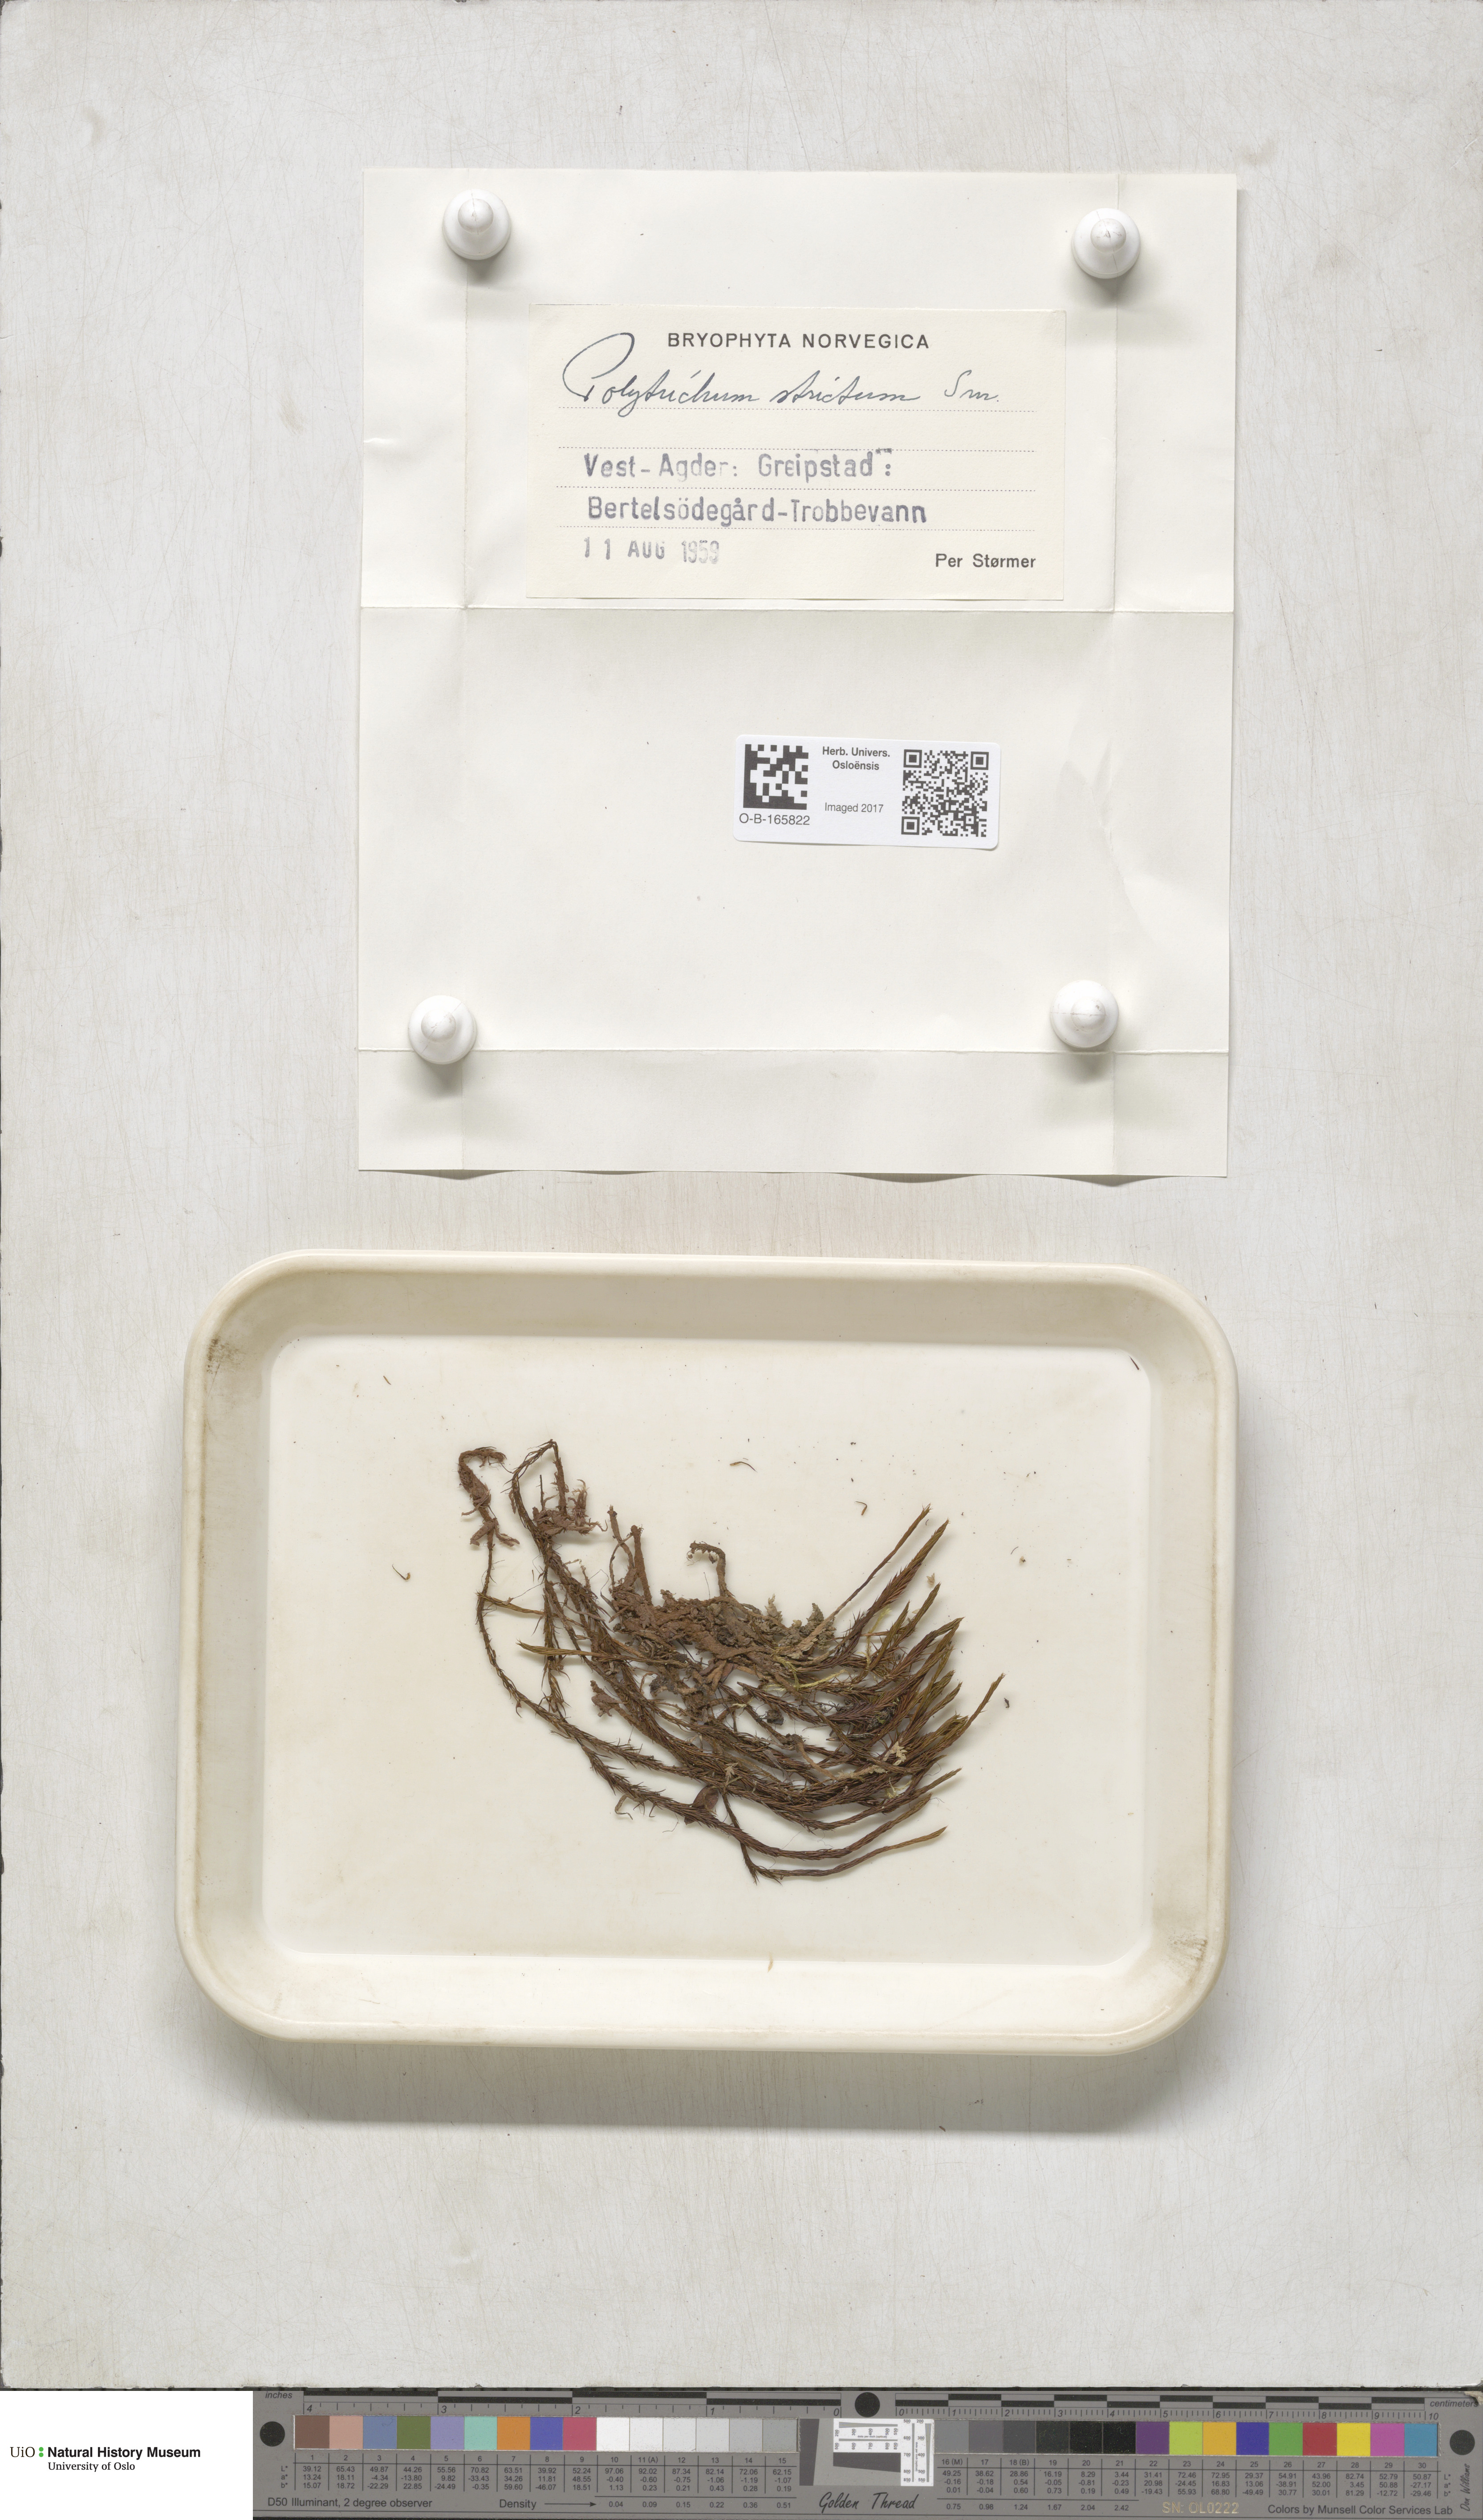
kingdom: Plantae
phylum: Bryophyta
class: Polytrichopsida
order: Polytrichales
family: Polytrichaceae
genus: Polytrichum
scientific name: Polytrichum strictum
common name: Bog haircap moss
